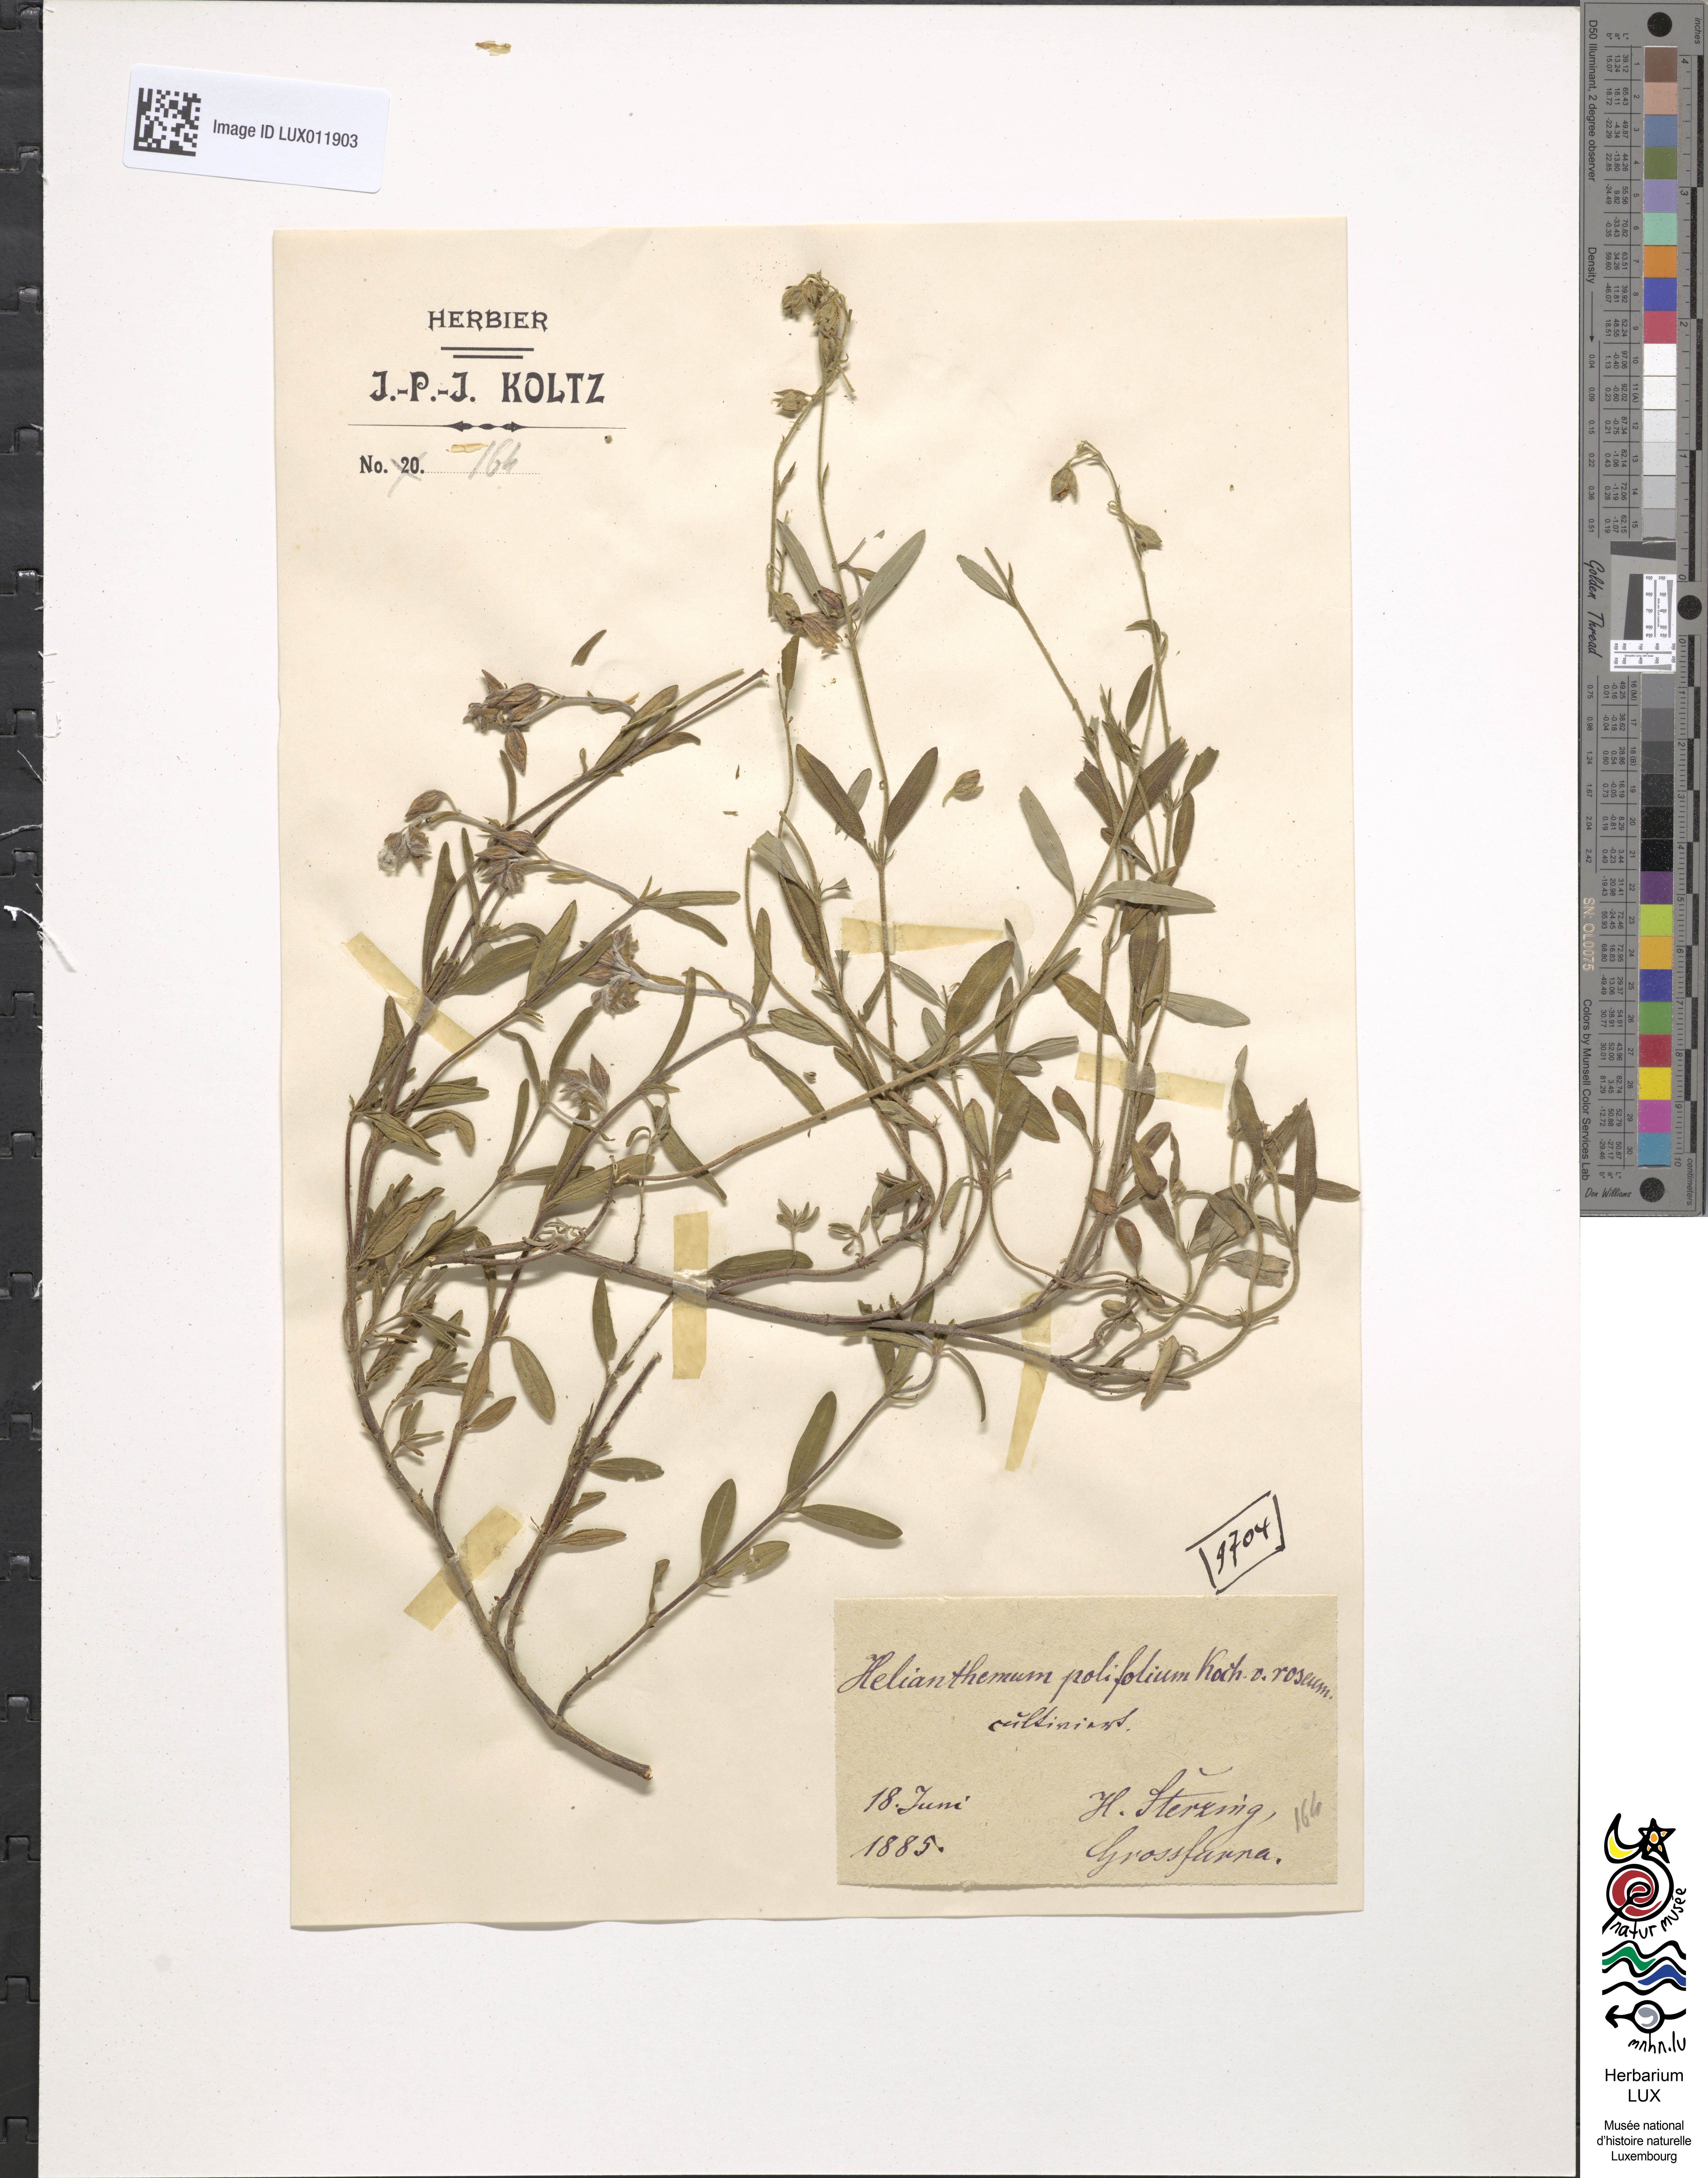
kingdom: Plantae
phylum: Tracheophyta
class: Magnoliopsida
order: Malvales
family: Cistaceae
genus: Helianthemum
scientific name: Helianthemum nummularium
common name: Common rock-rose
